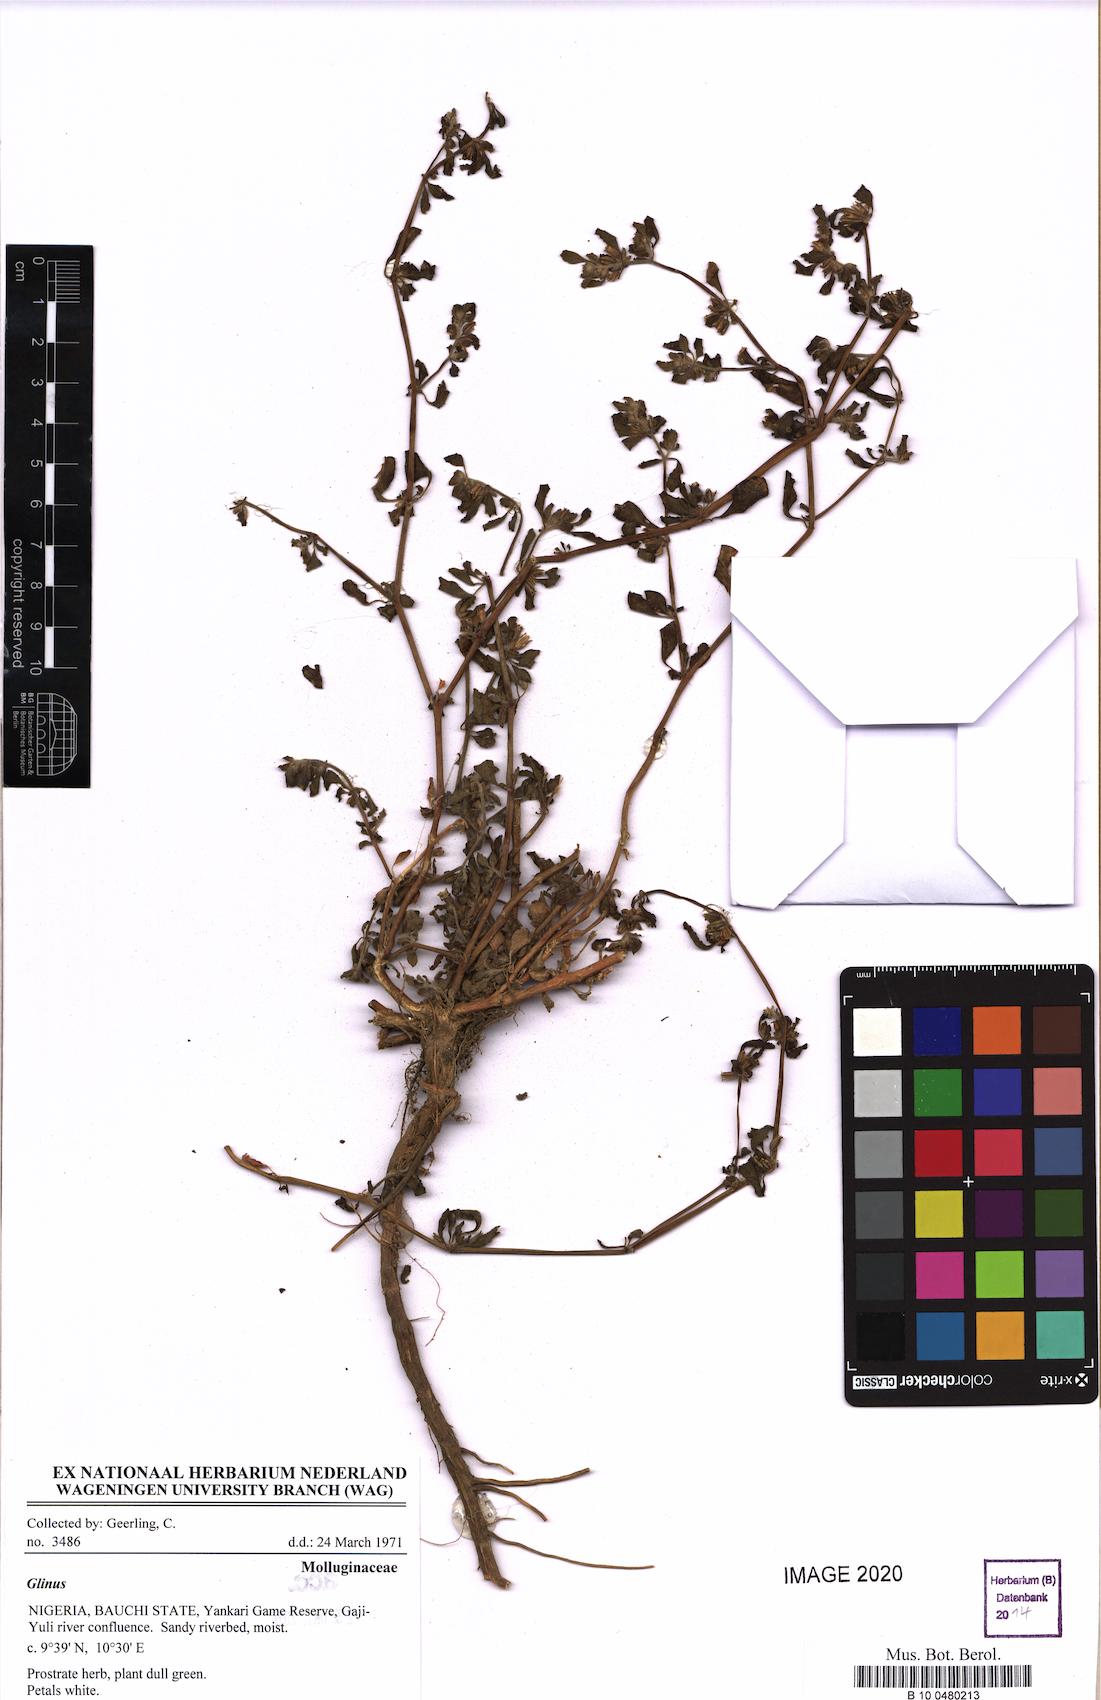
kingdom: Plantae
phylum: Tracheophyta
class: Magnoliopsida
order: Caryophyllales
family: Molluginaceae
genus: Glinus
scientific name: Glinus hirtus
